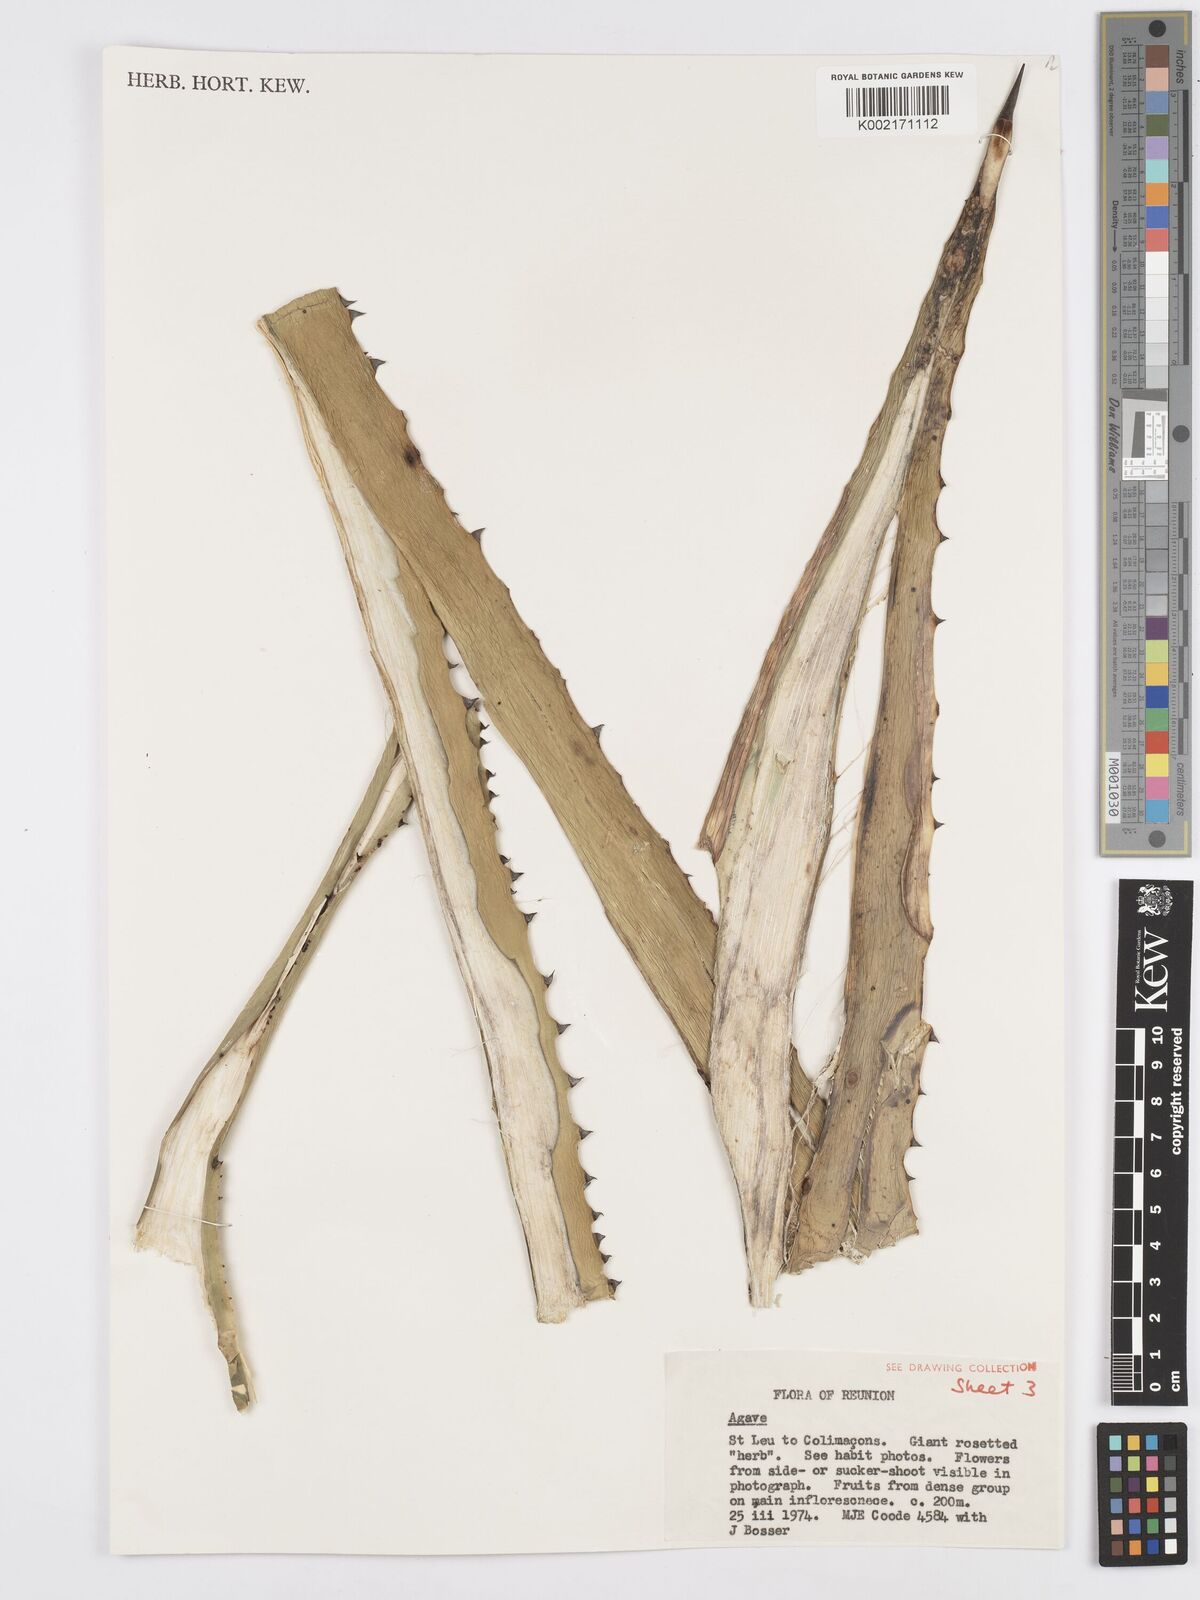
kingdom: Plantae
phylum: Tracheophyta
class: Liliopsida
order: Asparagales
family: Asparagaceae
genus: Agave
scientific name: Agave
